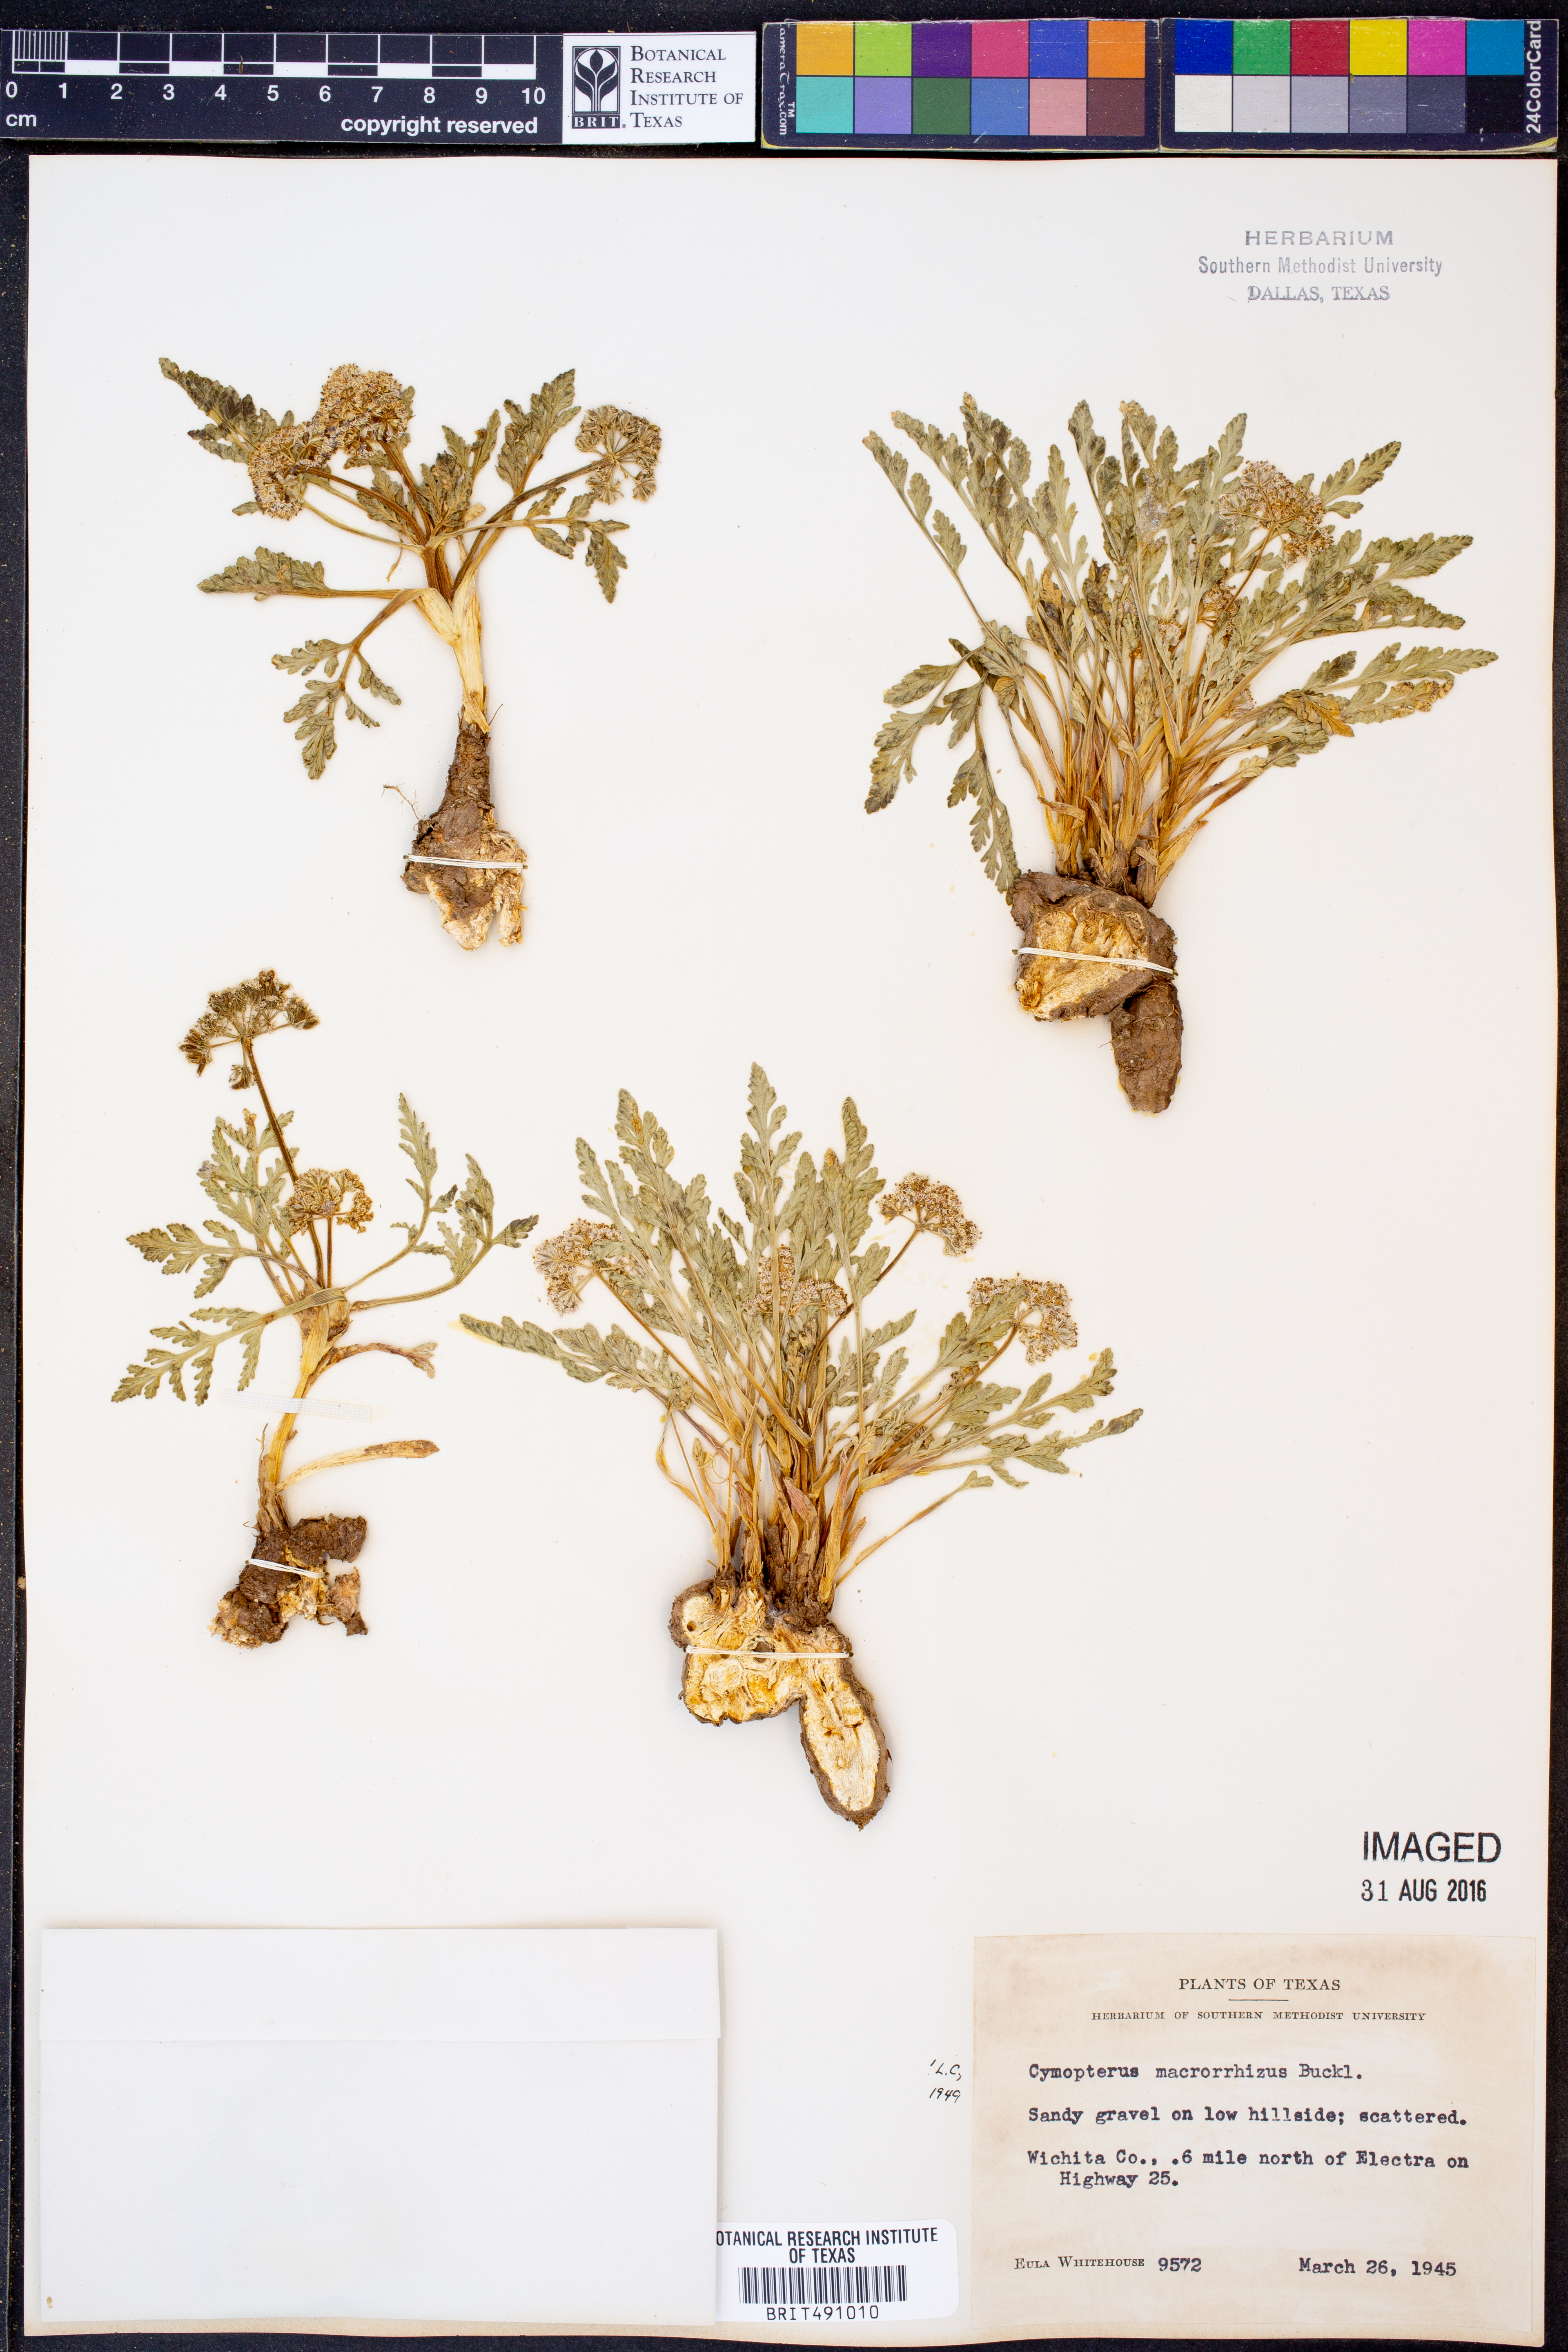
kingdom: Plantae
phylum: Tracheophyta
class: Magnoliopsida
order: Apiales
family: Apiaceae
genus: Vesper
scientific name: Vesper macrorhizus
